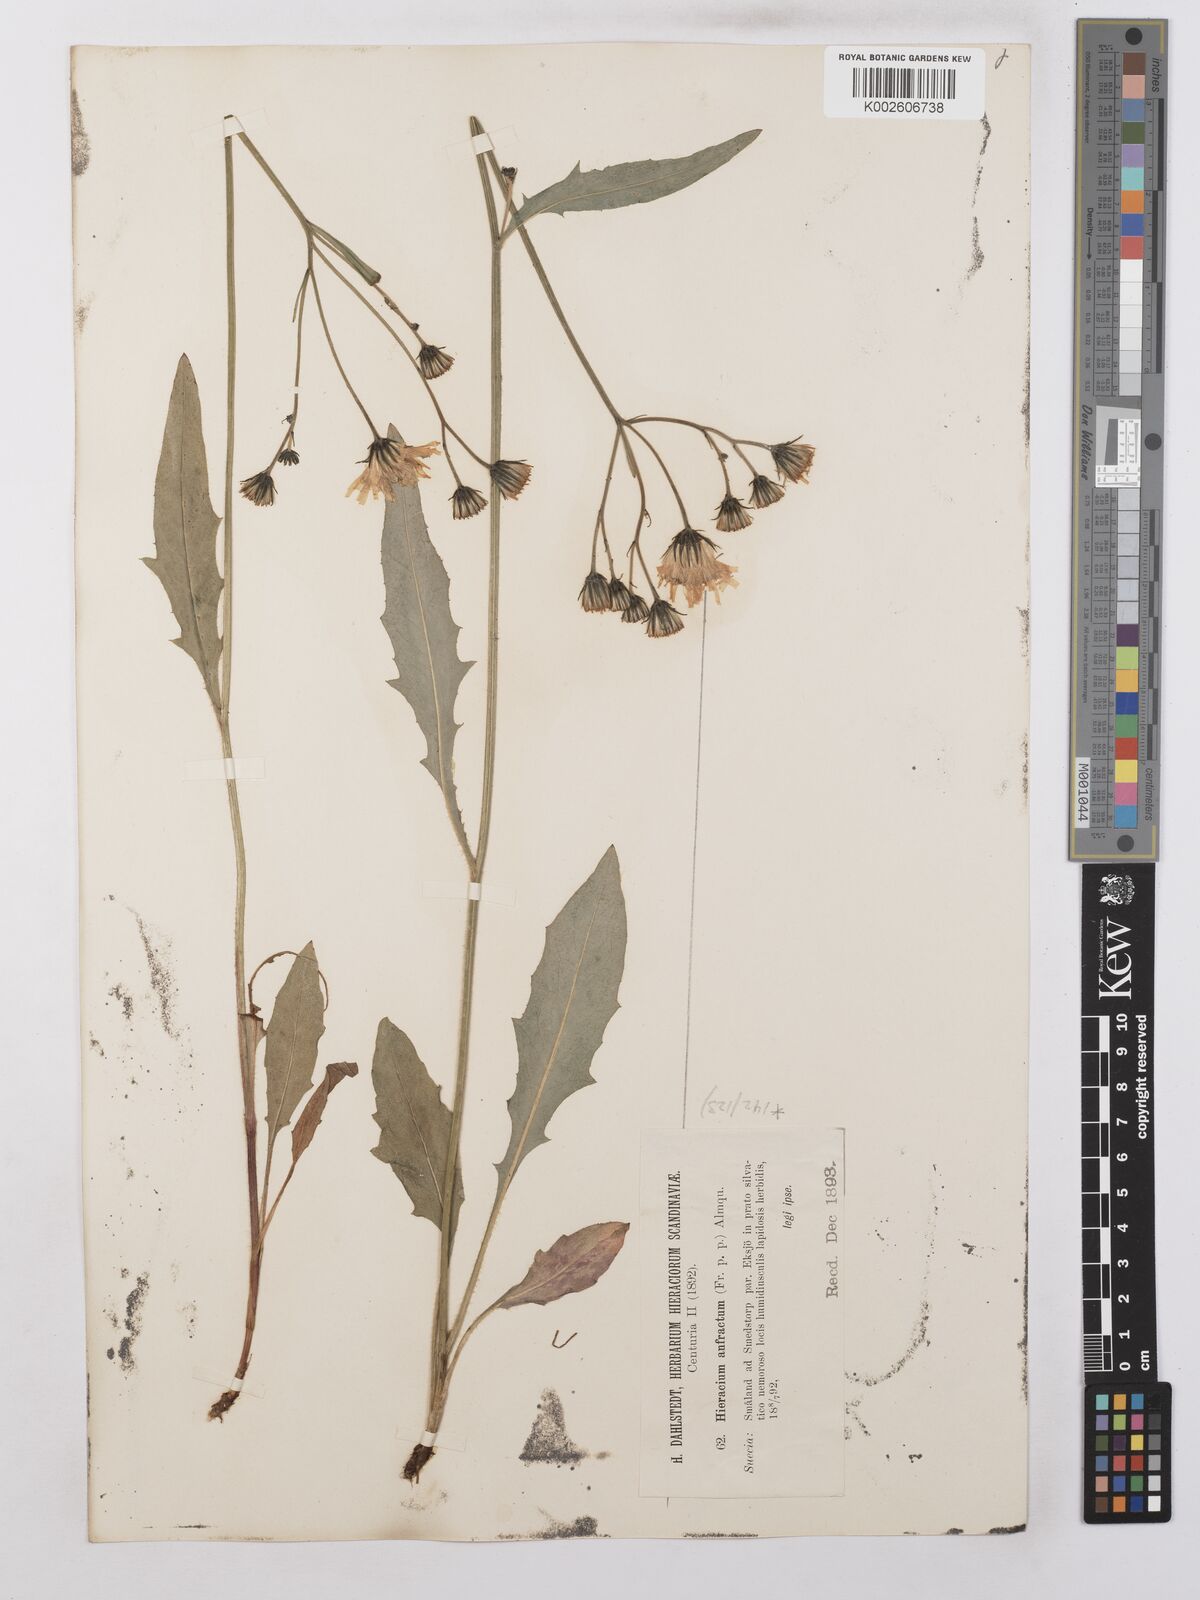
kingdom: Plantae
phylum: Tracheophyta
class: Magnoliopsida
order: Asterales
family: Asteraceae
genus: Hieracium
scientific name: Hieracium lachenalii
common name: Common hawkweed
